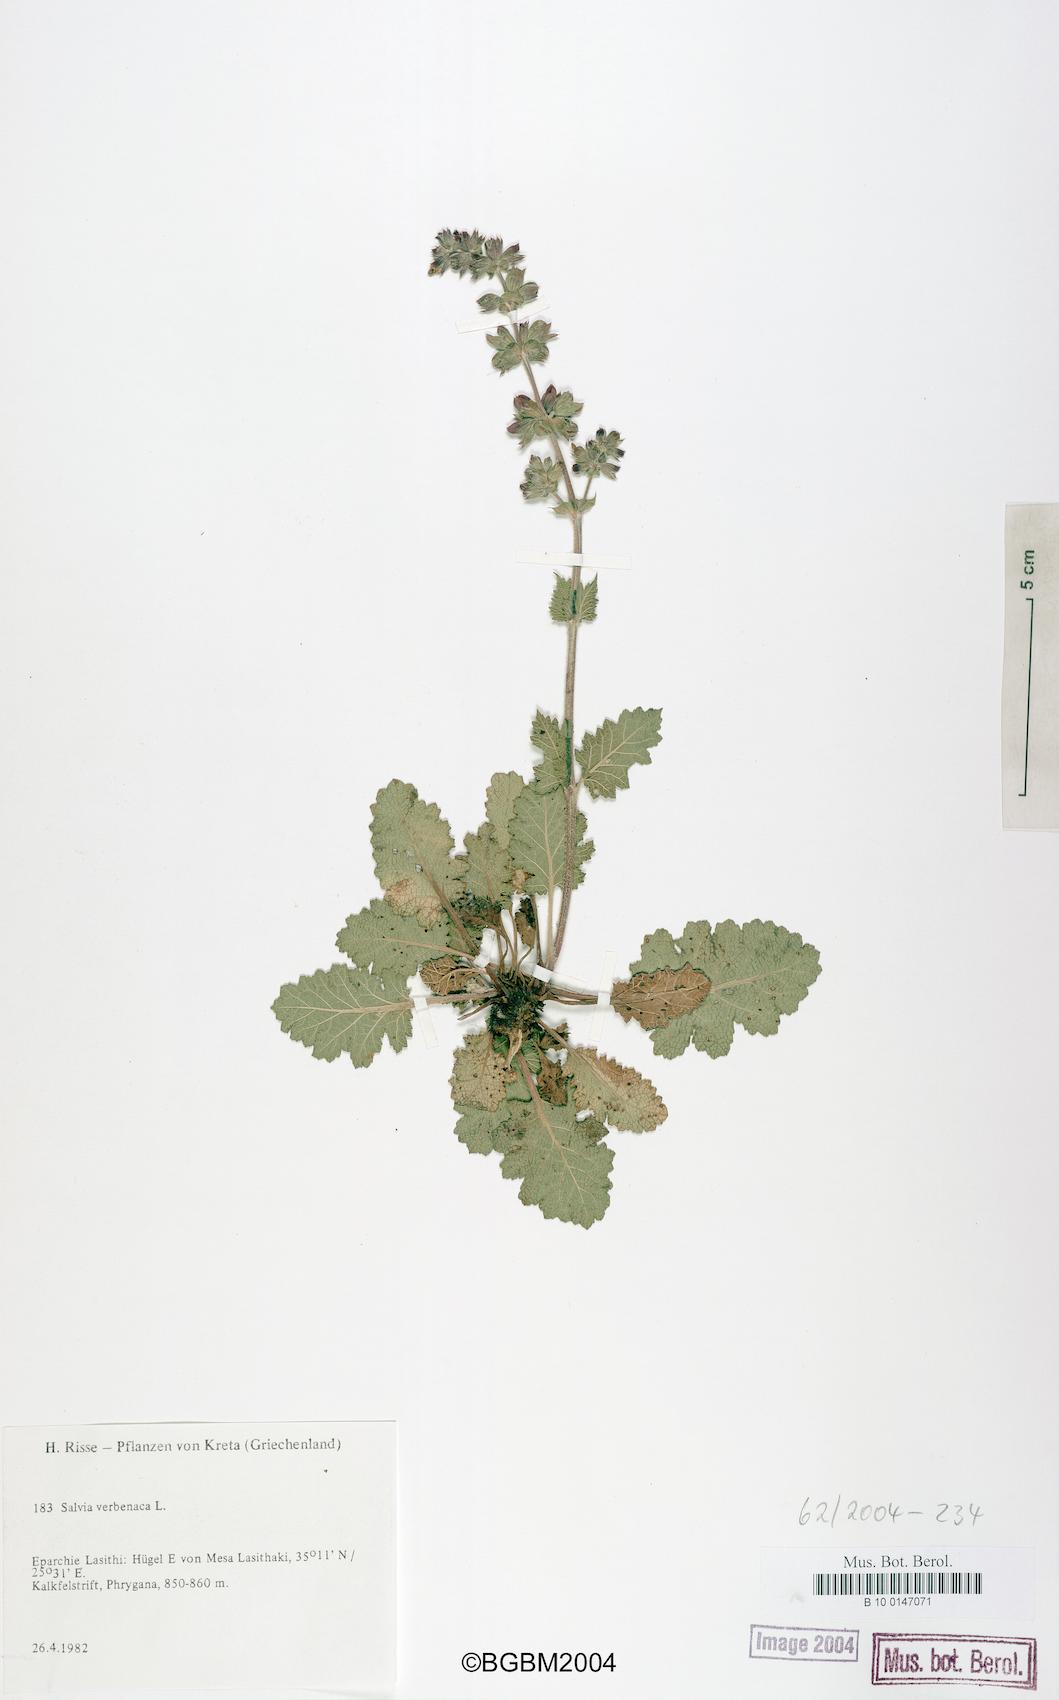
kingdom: Plantae
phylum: Tracheophyta
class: Magnoliopsida
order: Lamiales
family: Lamiaceae
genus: Salvia
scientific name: Salvia verbenaca
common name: Wild clary
